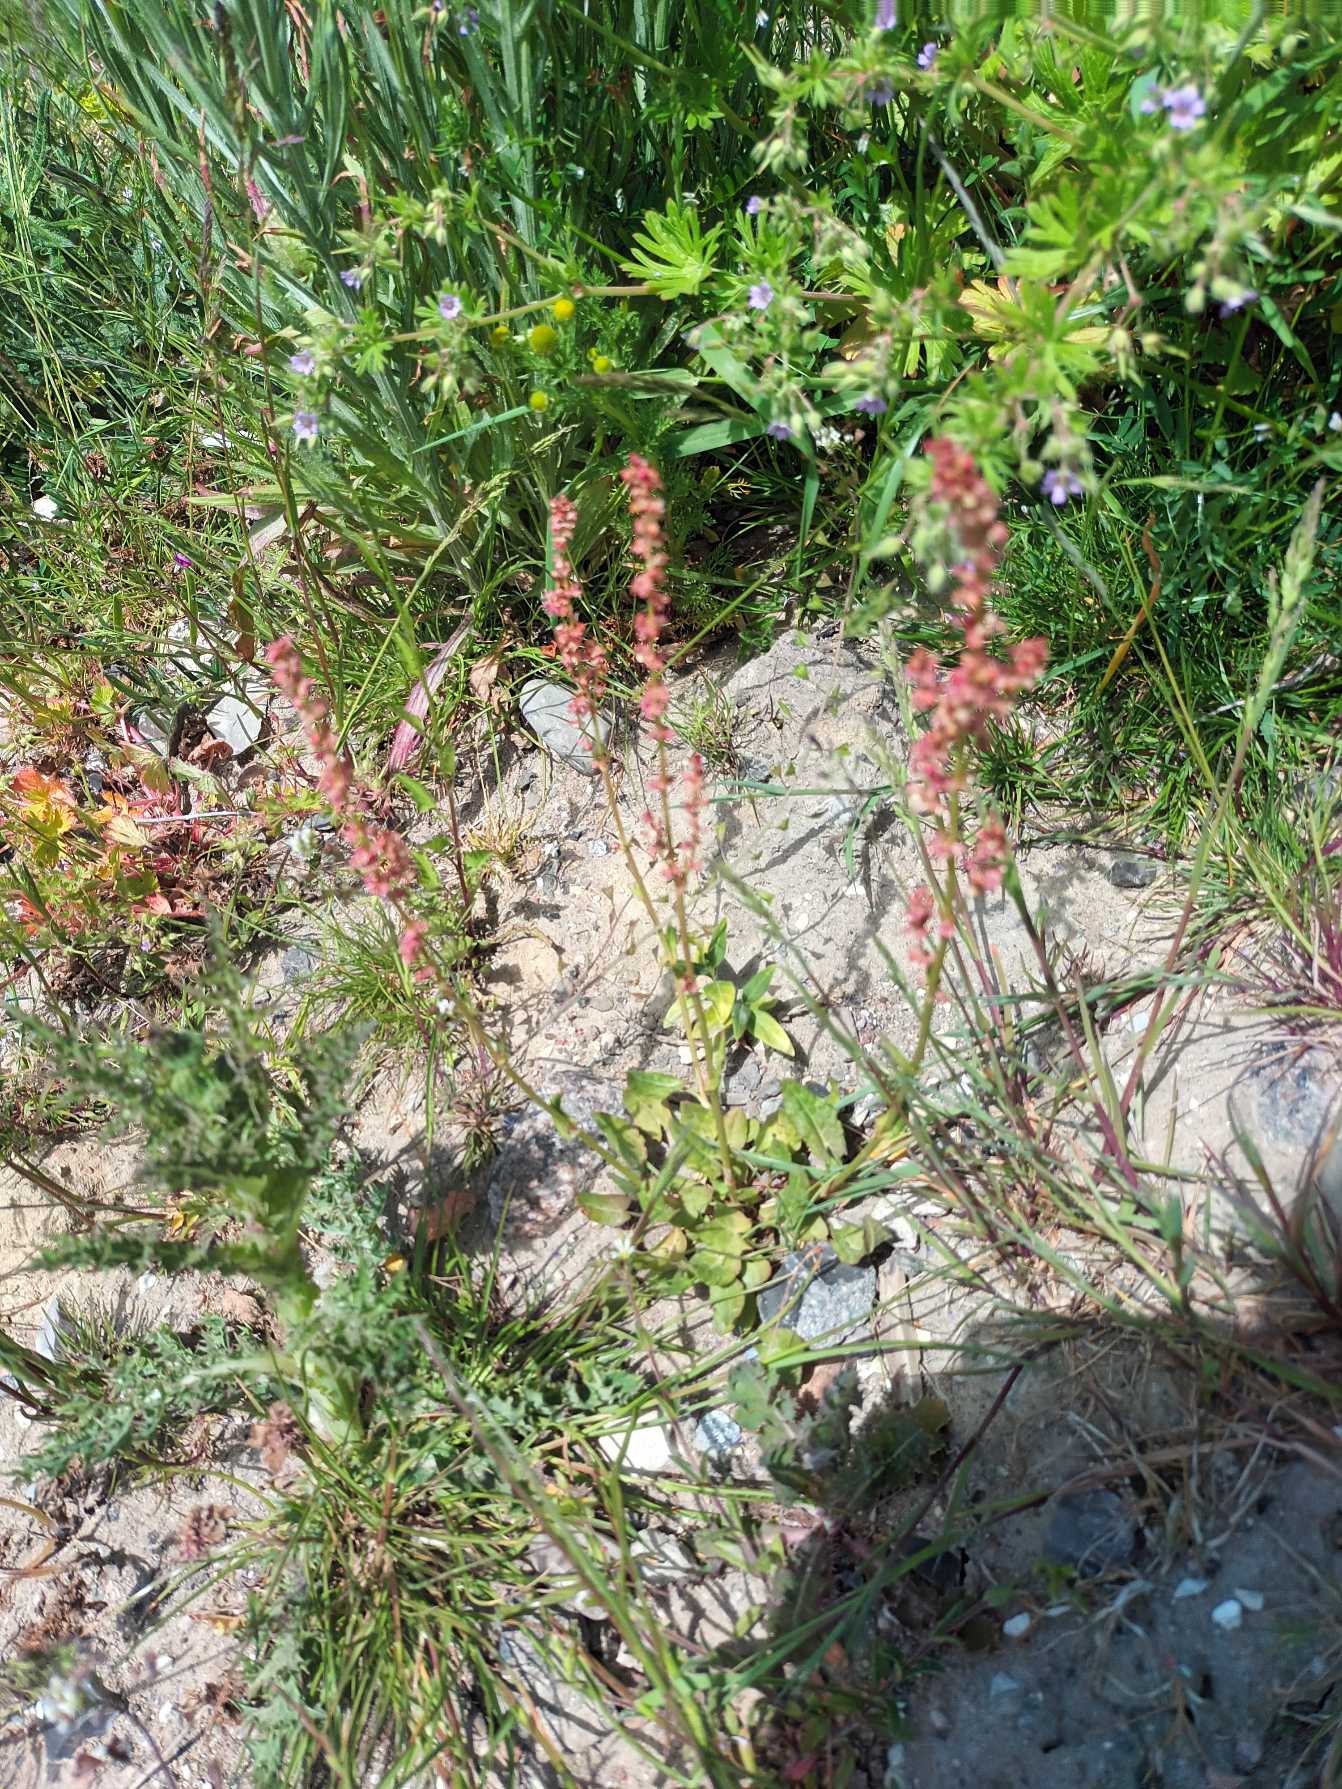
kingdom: Plantae
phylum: Tracheophyta
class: Magnoliopsida
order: Caryophyllales
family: Polygonaceae
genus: Rumex
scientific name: Rumex acetosa
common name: Almindelig syre
